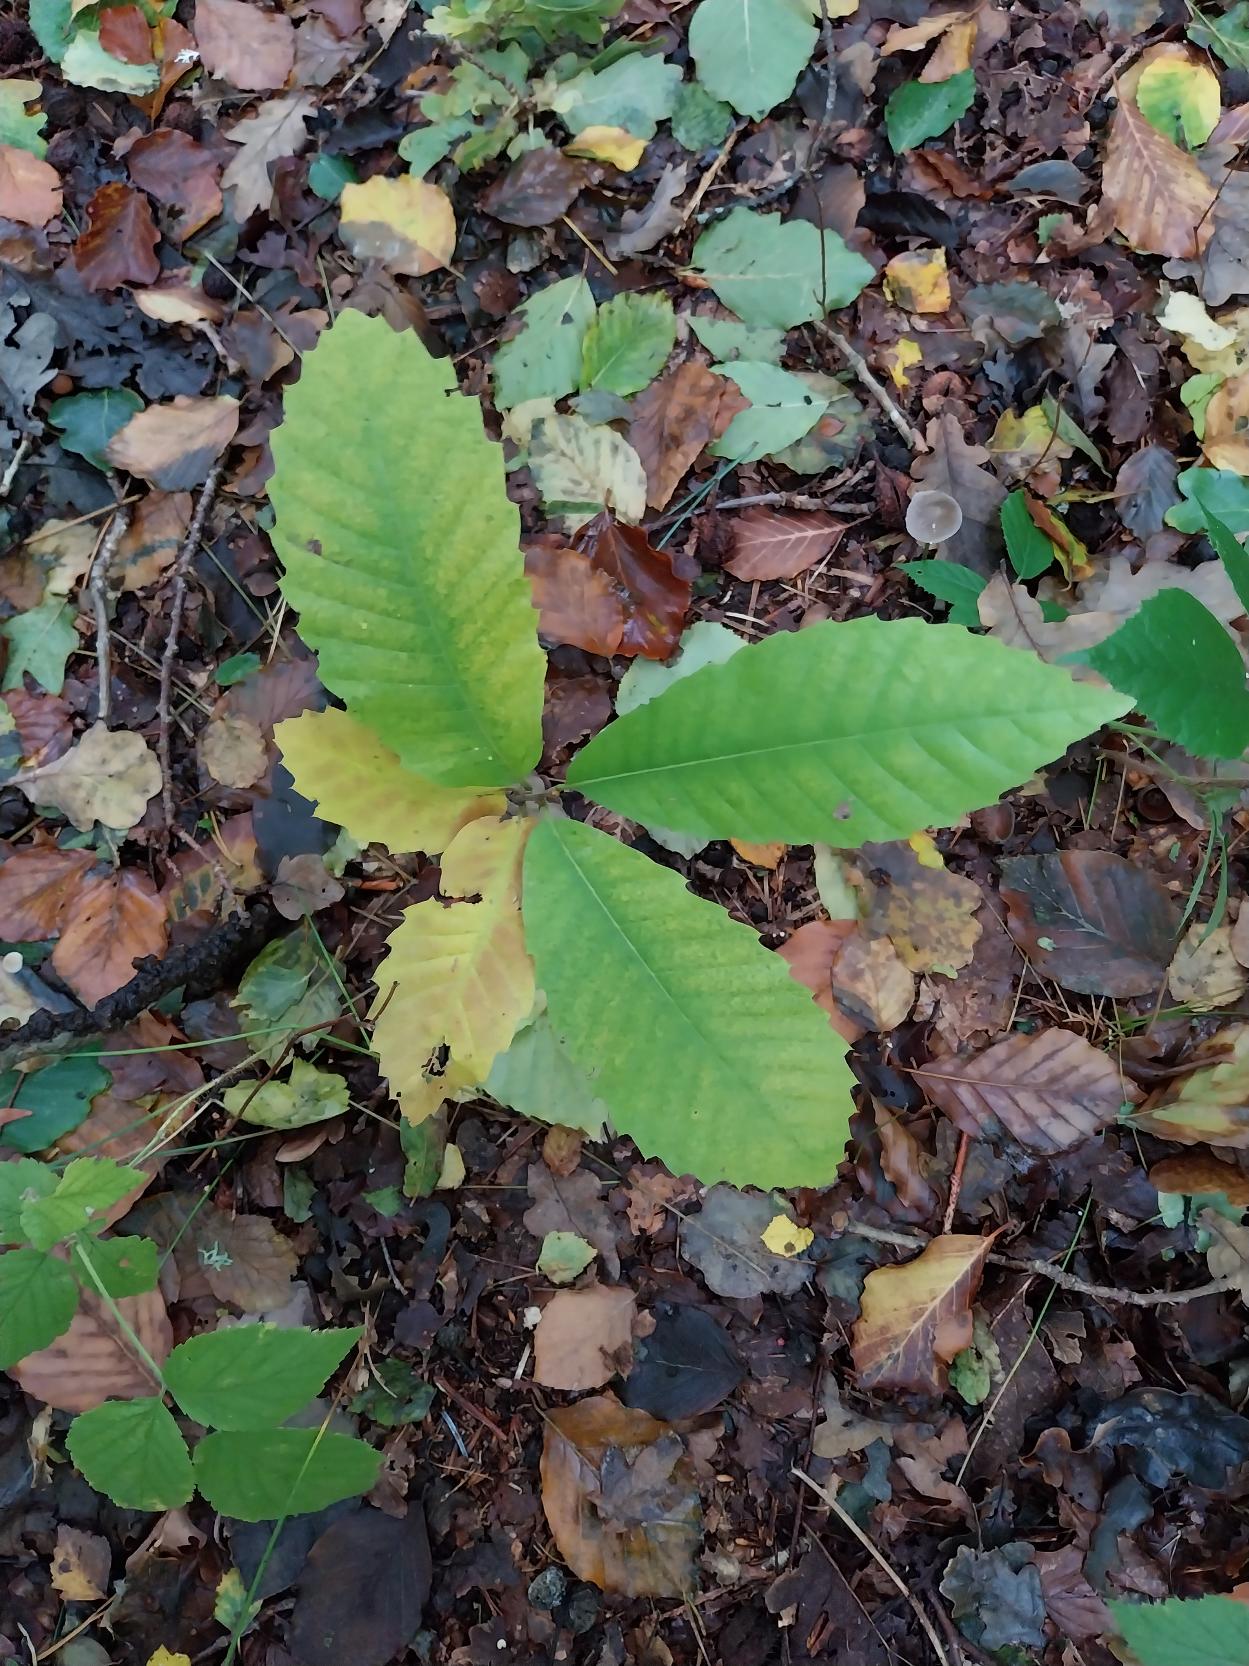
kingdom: Plantae
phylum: Tracheophyta
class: Magnoliopsida
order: Fagales
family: Fagaceae
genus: Castanea
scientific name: Castanea sativa
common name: Ægte kastanie
